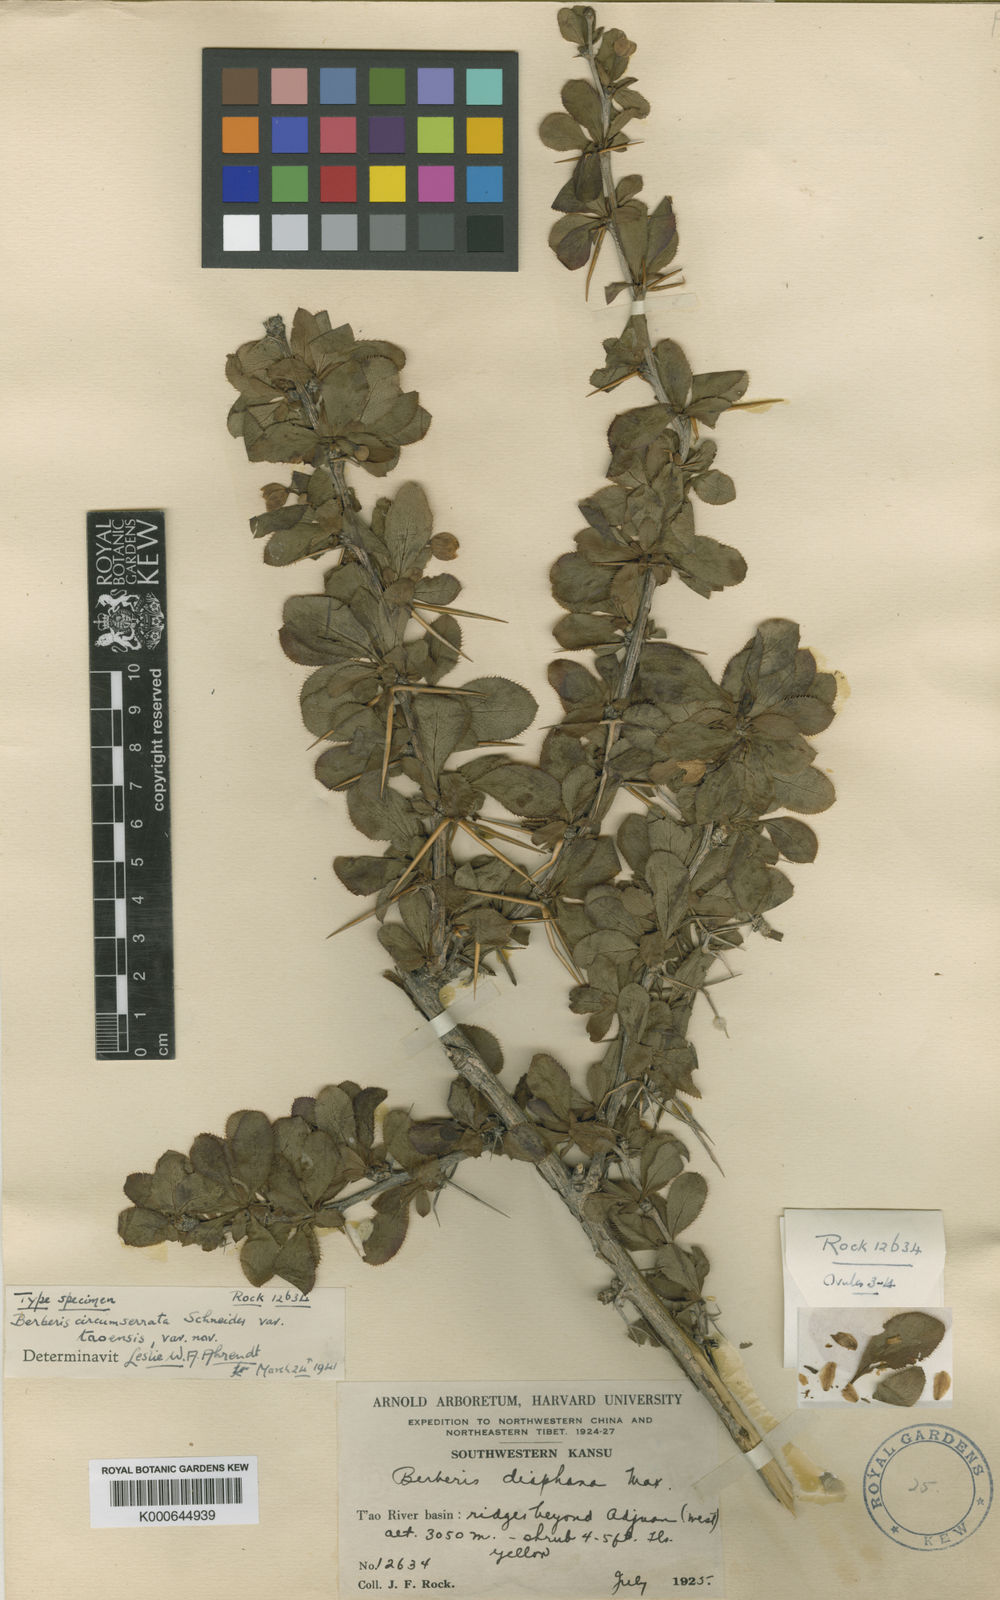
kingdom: Plantae
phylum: Tracheophyta
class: Magnoliopsida
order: Ranunculales
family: Berberidaceae
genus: Berberis
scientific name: Berberis diaphana
